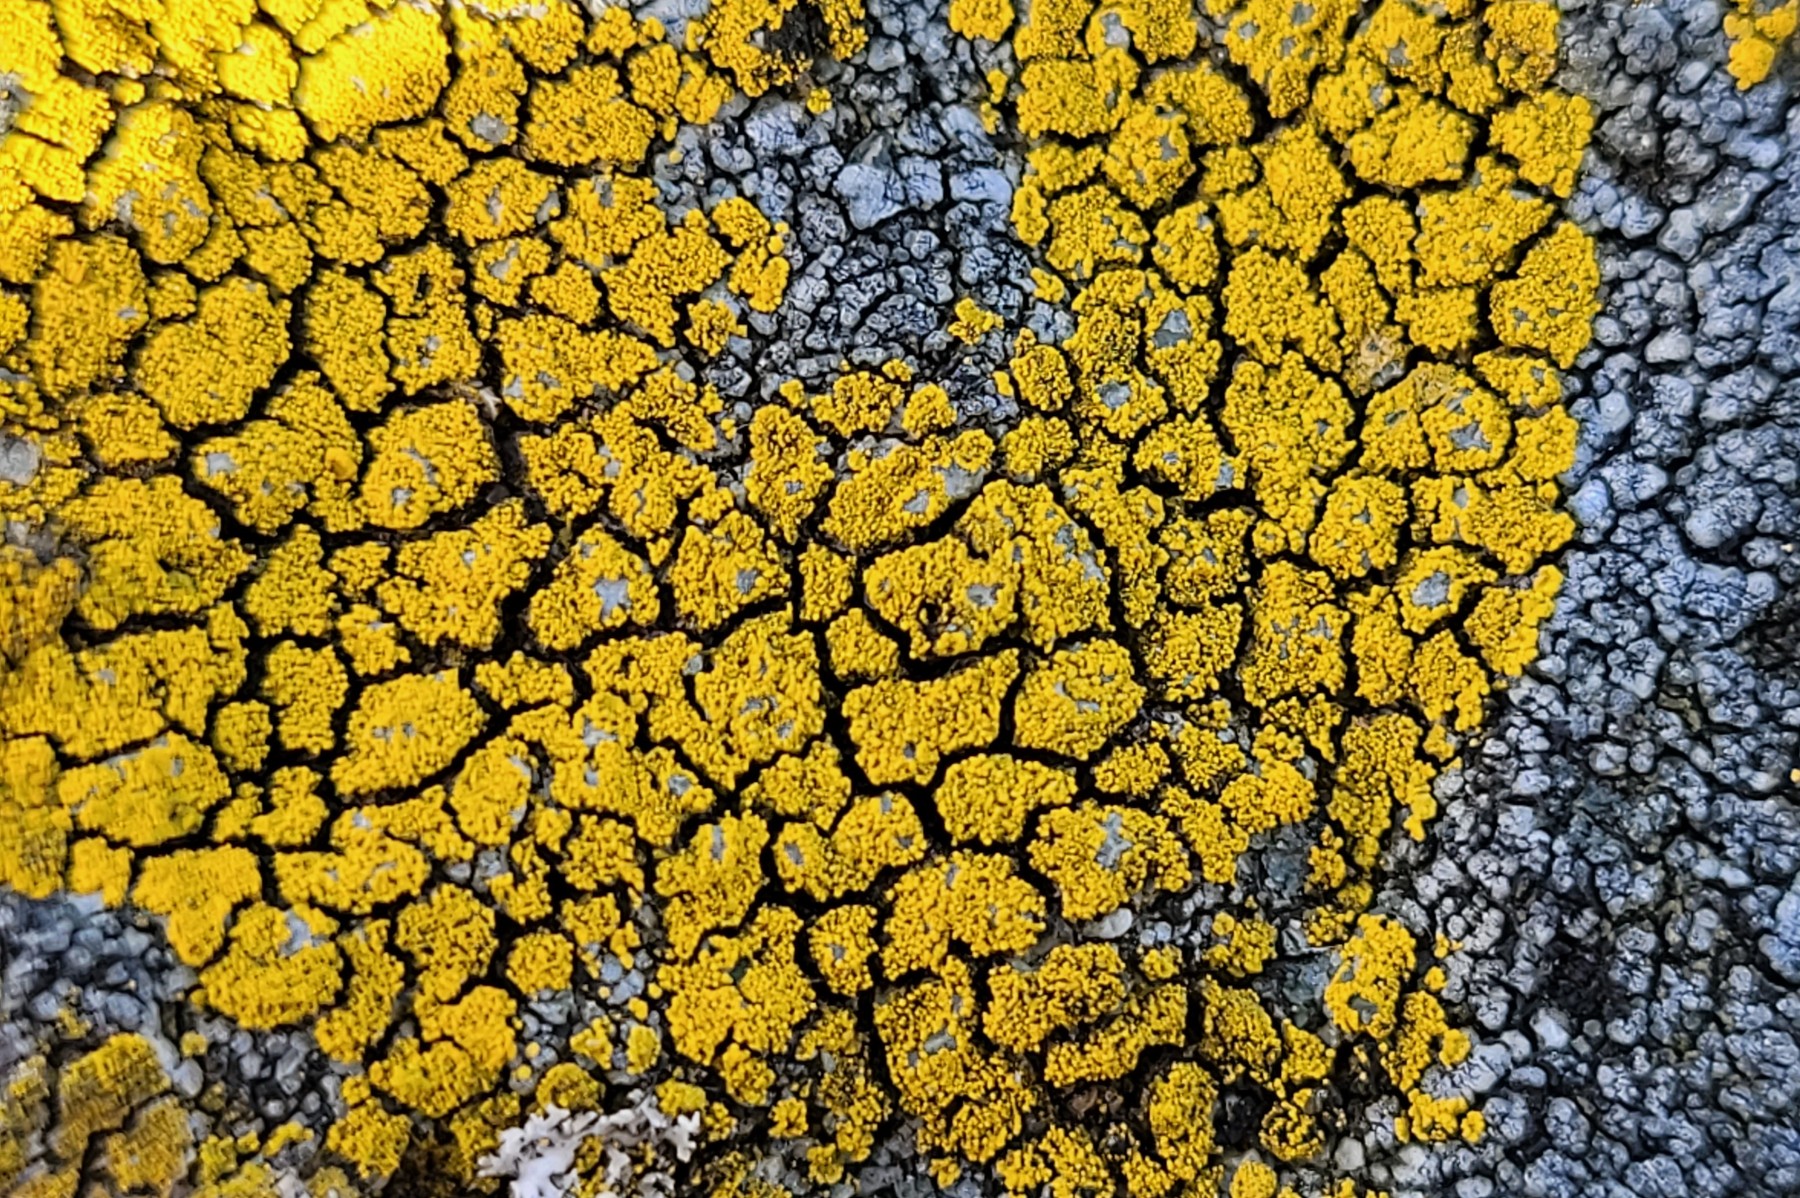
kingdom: Fungi
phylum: Ascomycota
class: Candelariomycetes
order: Candelariales
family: Candelariaceae
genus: Candelariella
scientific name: Candelariella coralliza
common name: pude-æggeblommelav
